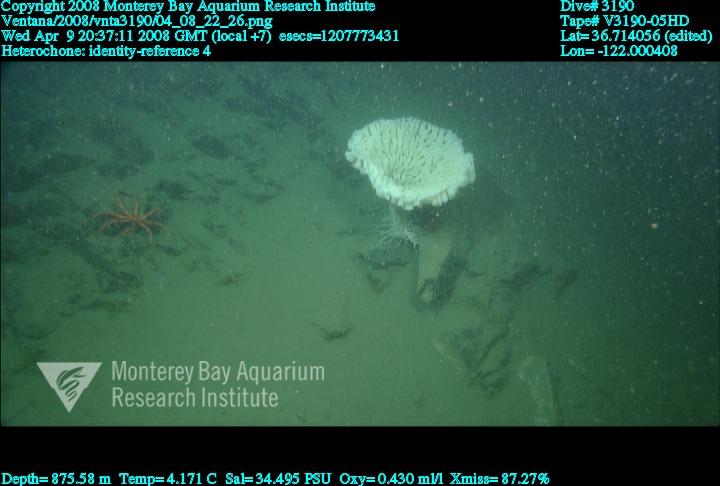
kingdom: Animalia
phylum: Porifera
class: Hexactinellida
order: Sceptrulophora
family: Aphrocallistidae
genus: Heterochone
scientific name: Heterochone
